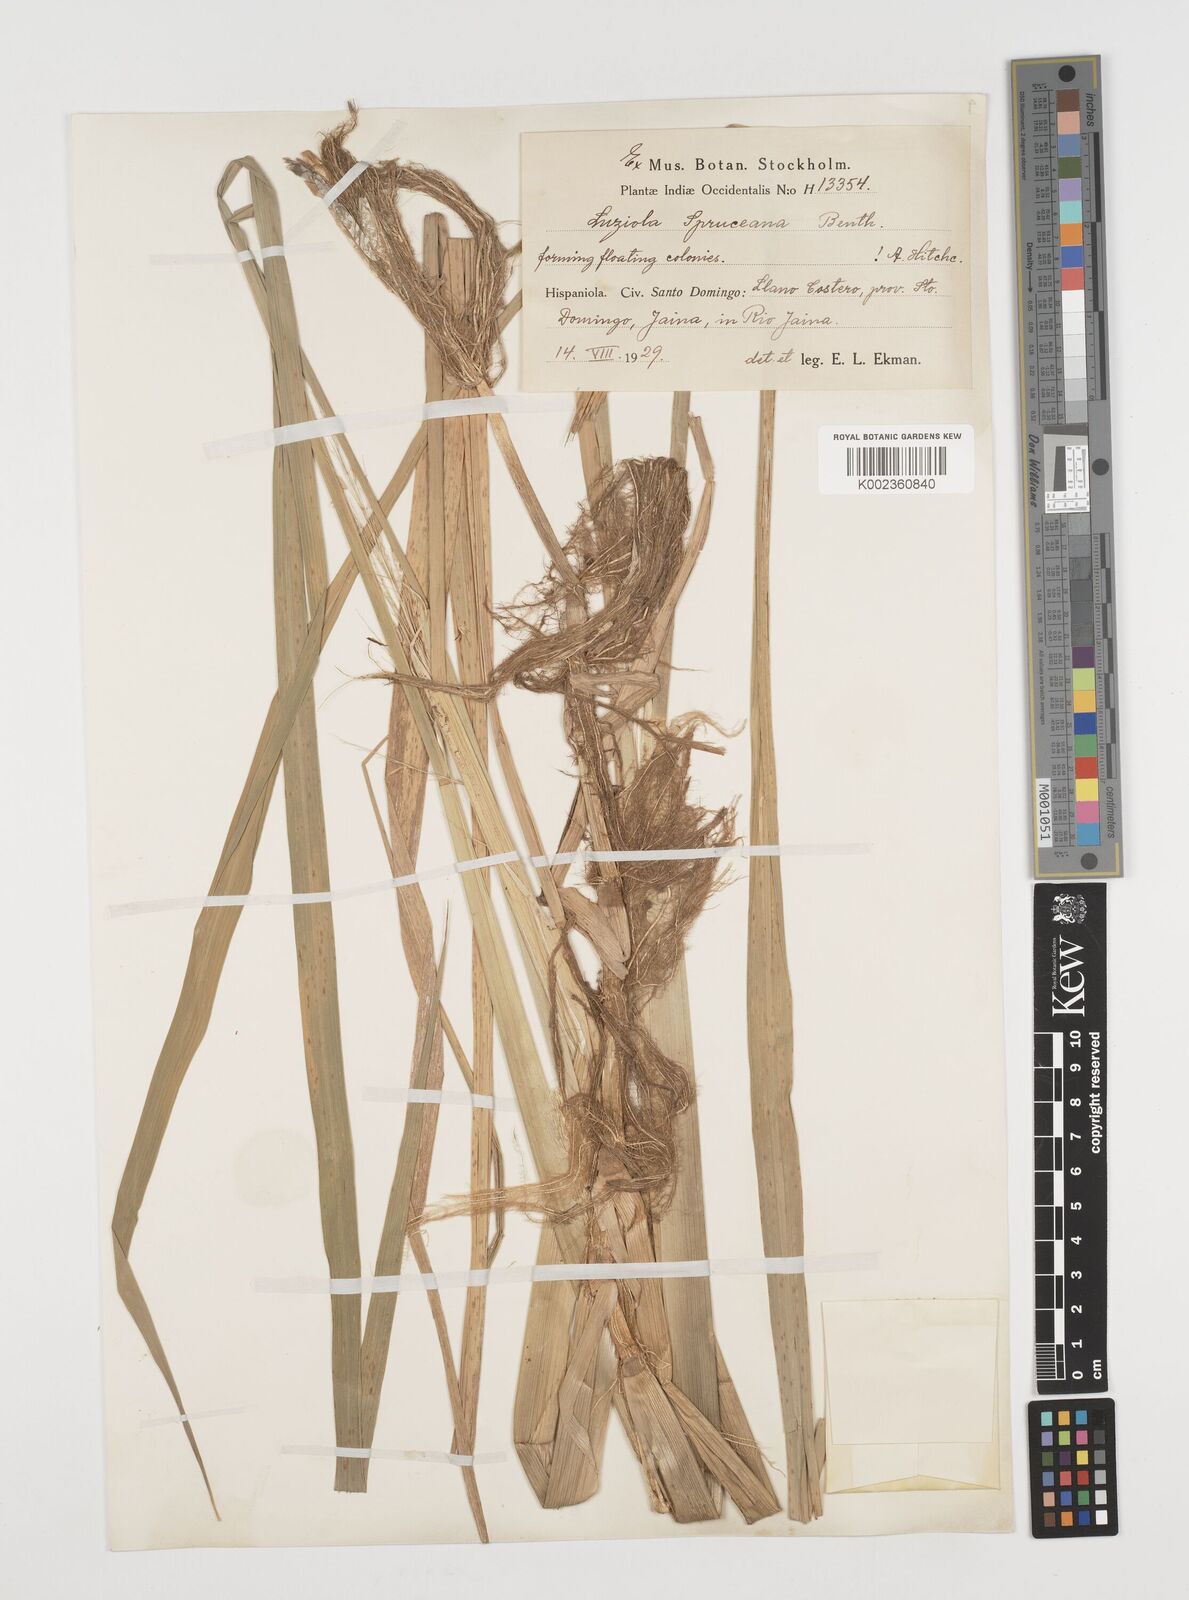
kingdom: Plantae
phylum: Tracheophyta
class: Liliopsida
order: Poales
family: Poaceae
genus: Luziola
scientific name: Luziola subintegra
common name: Large watergrass
